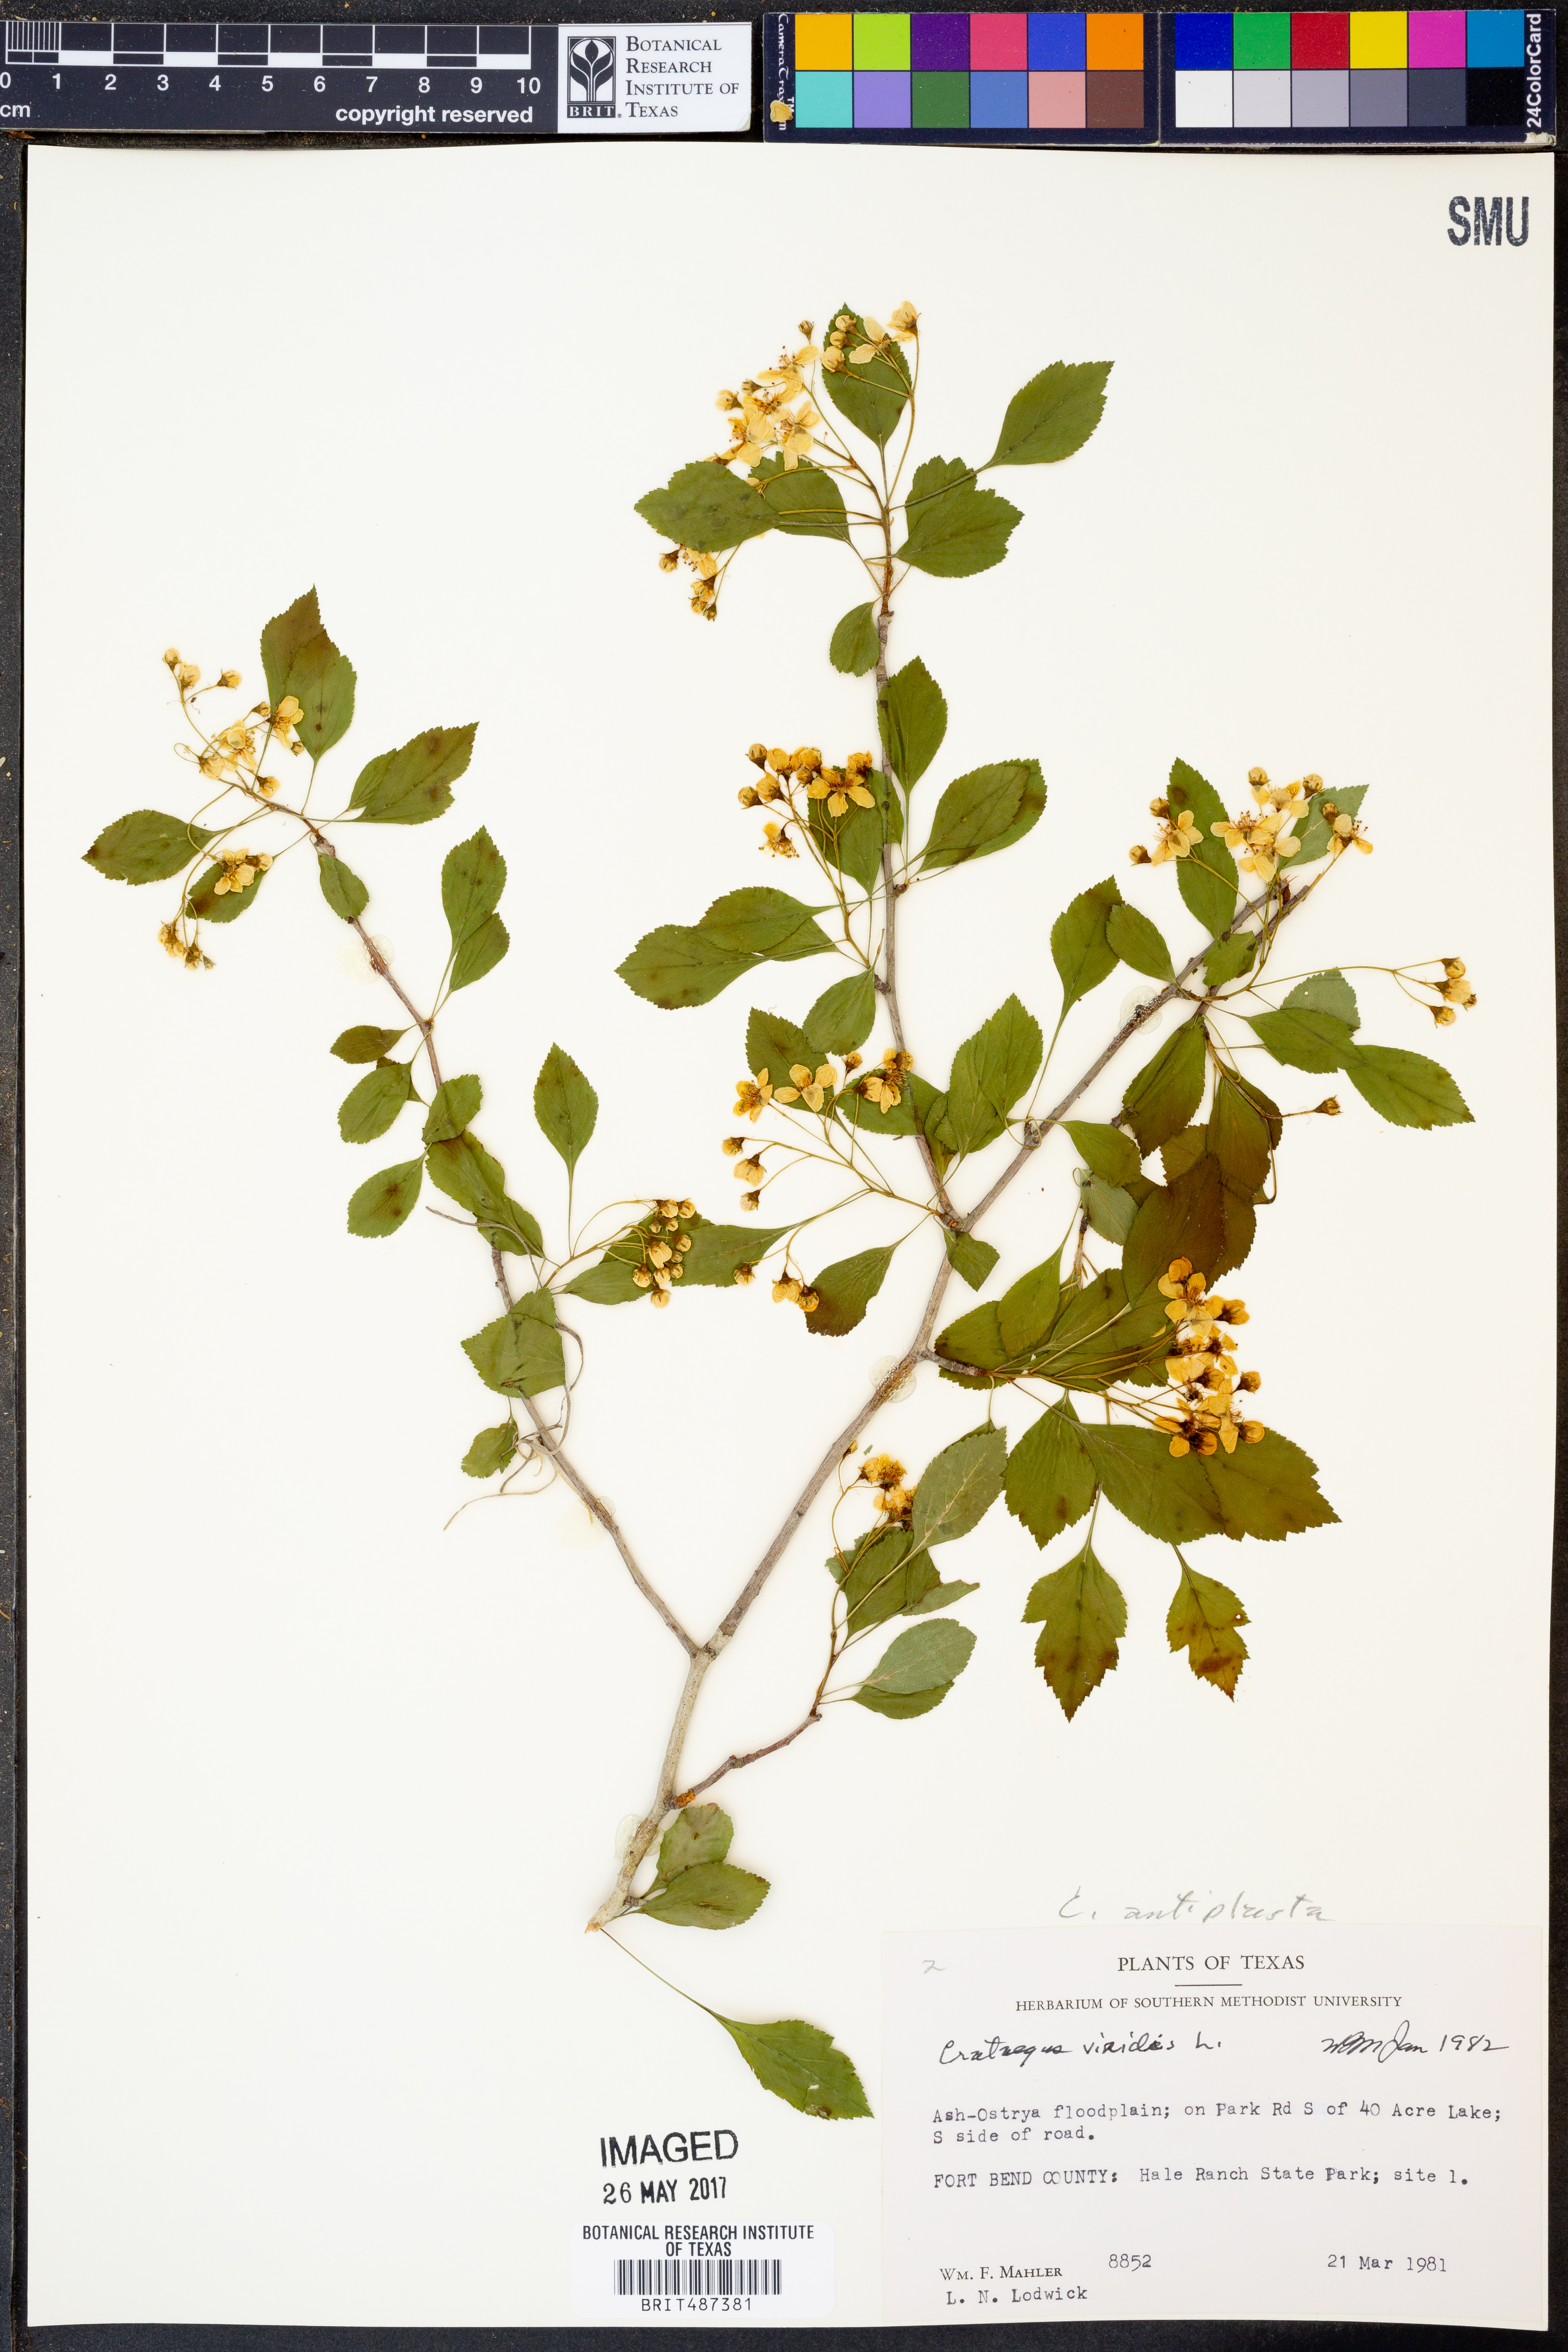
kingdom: Plantae
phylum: Tracheophyta
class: Magnoliopsida
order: Rosales
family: Rosaceae
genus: Crataegus
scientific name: Crataegus viridis
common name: Southernthorn
